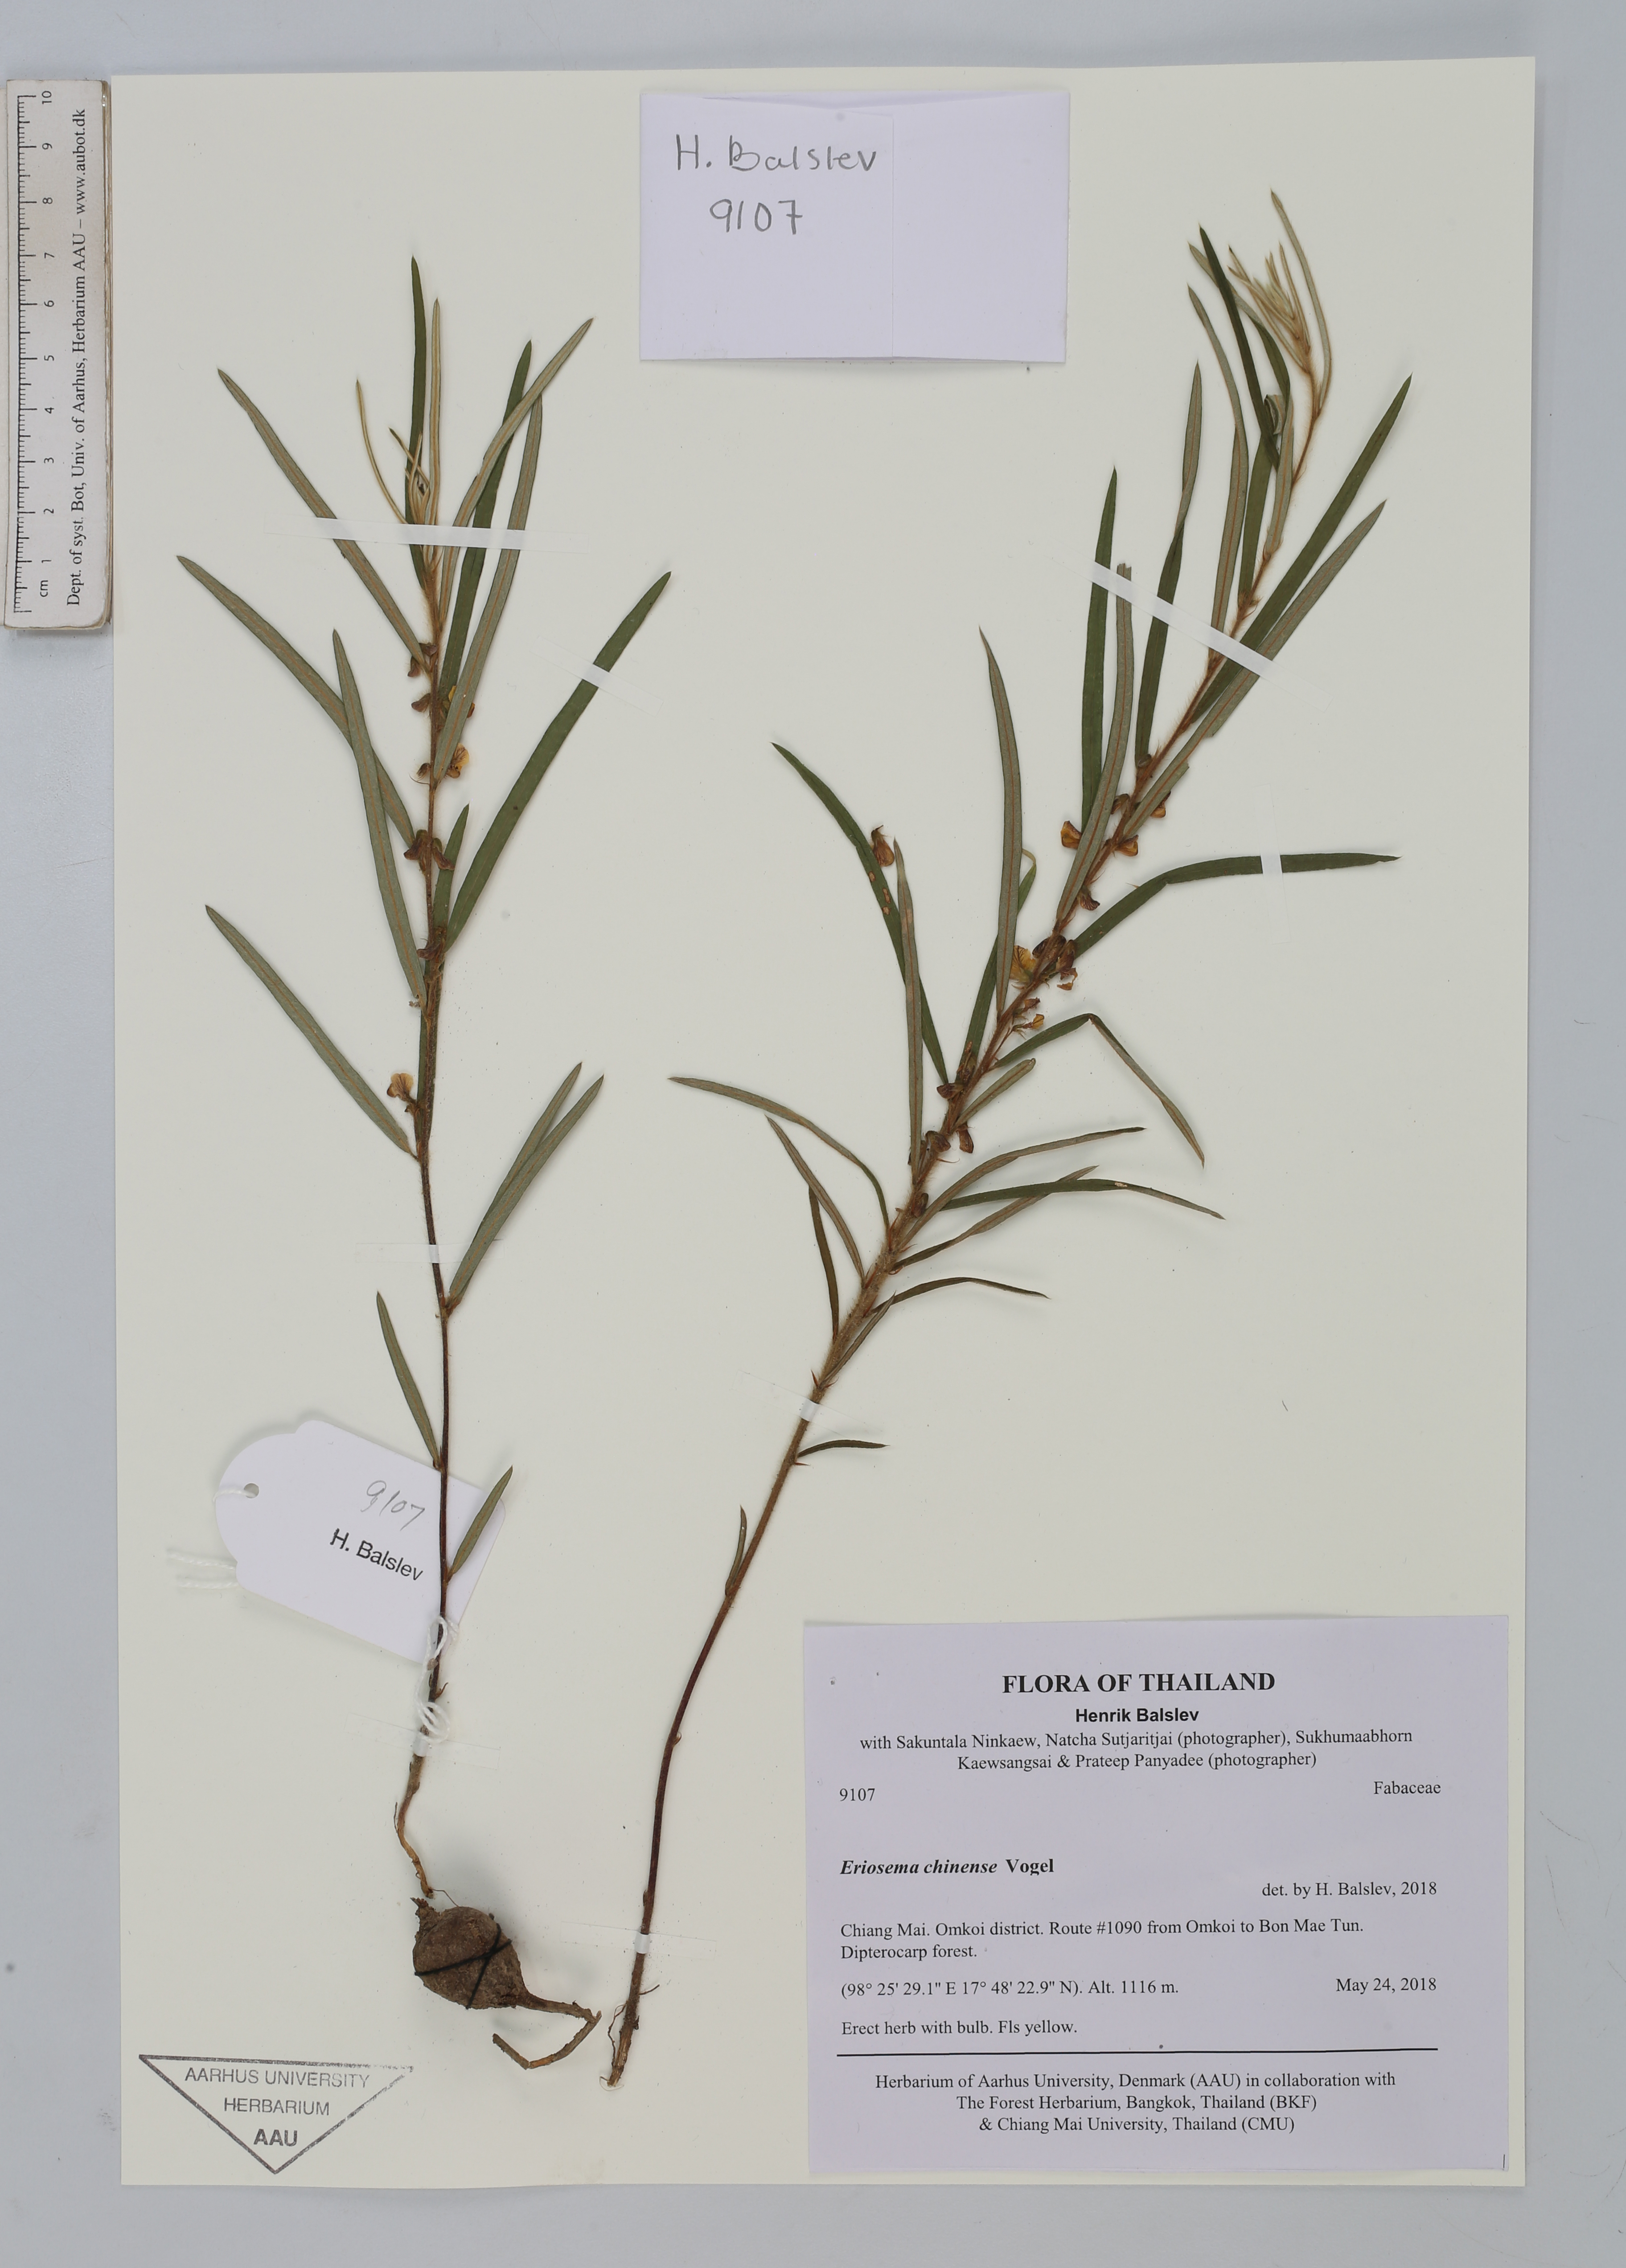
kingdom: Plantae
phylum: Tracheophyta
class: Magnoliopsida
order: Fabales
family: Fabaceae
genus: Eriosema
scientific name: Eriosema chinense
